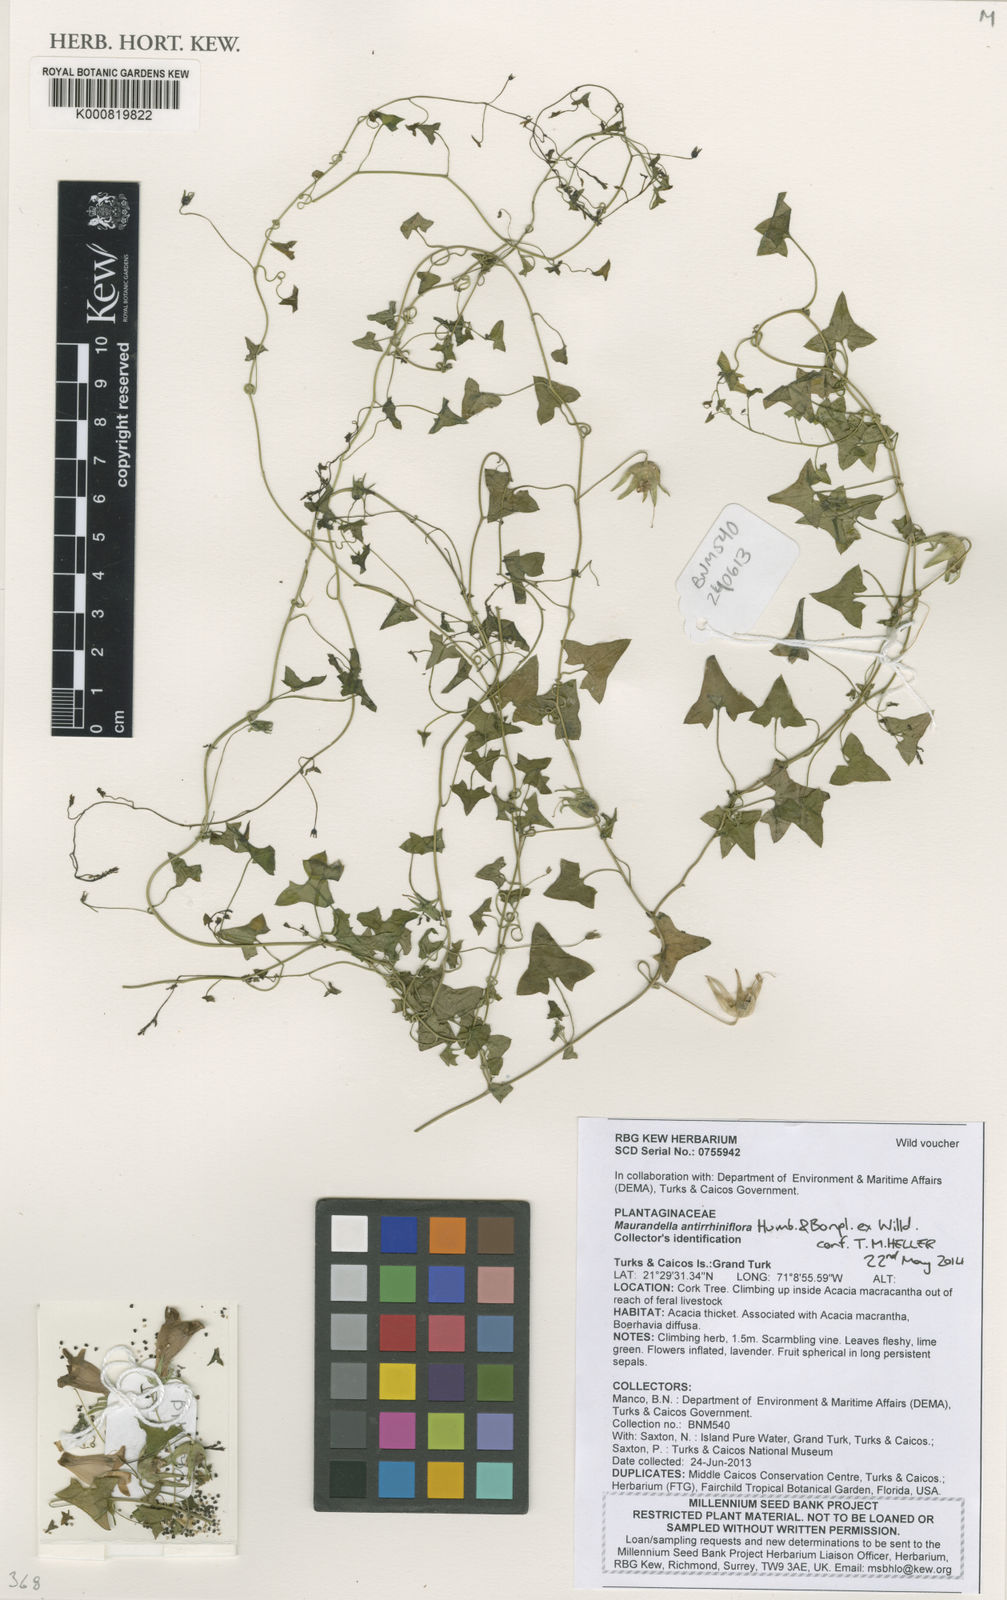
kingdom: Plantae
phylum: Tracheophyta
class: Magnoliopsida
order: Lamiales
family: Plantaginaceae
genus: Maurandella
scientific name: Maurandella antirrhiniflora
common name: Violet twining-snapdragon
